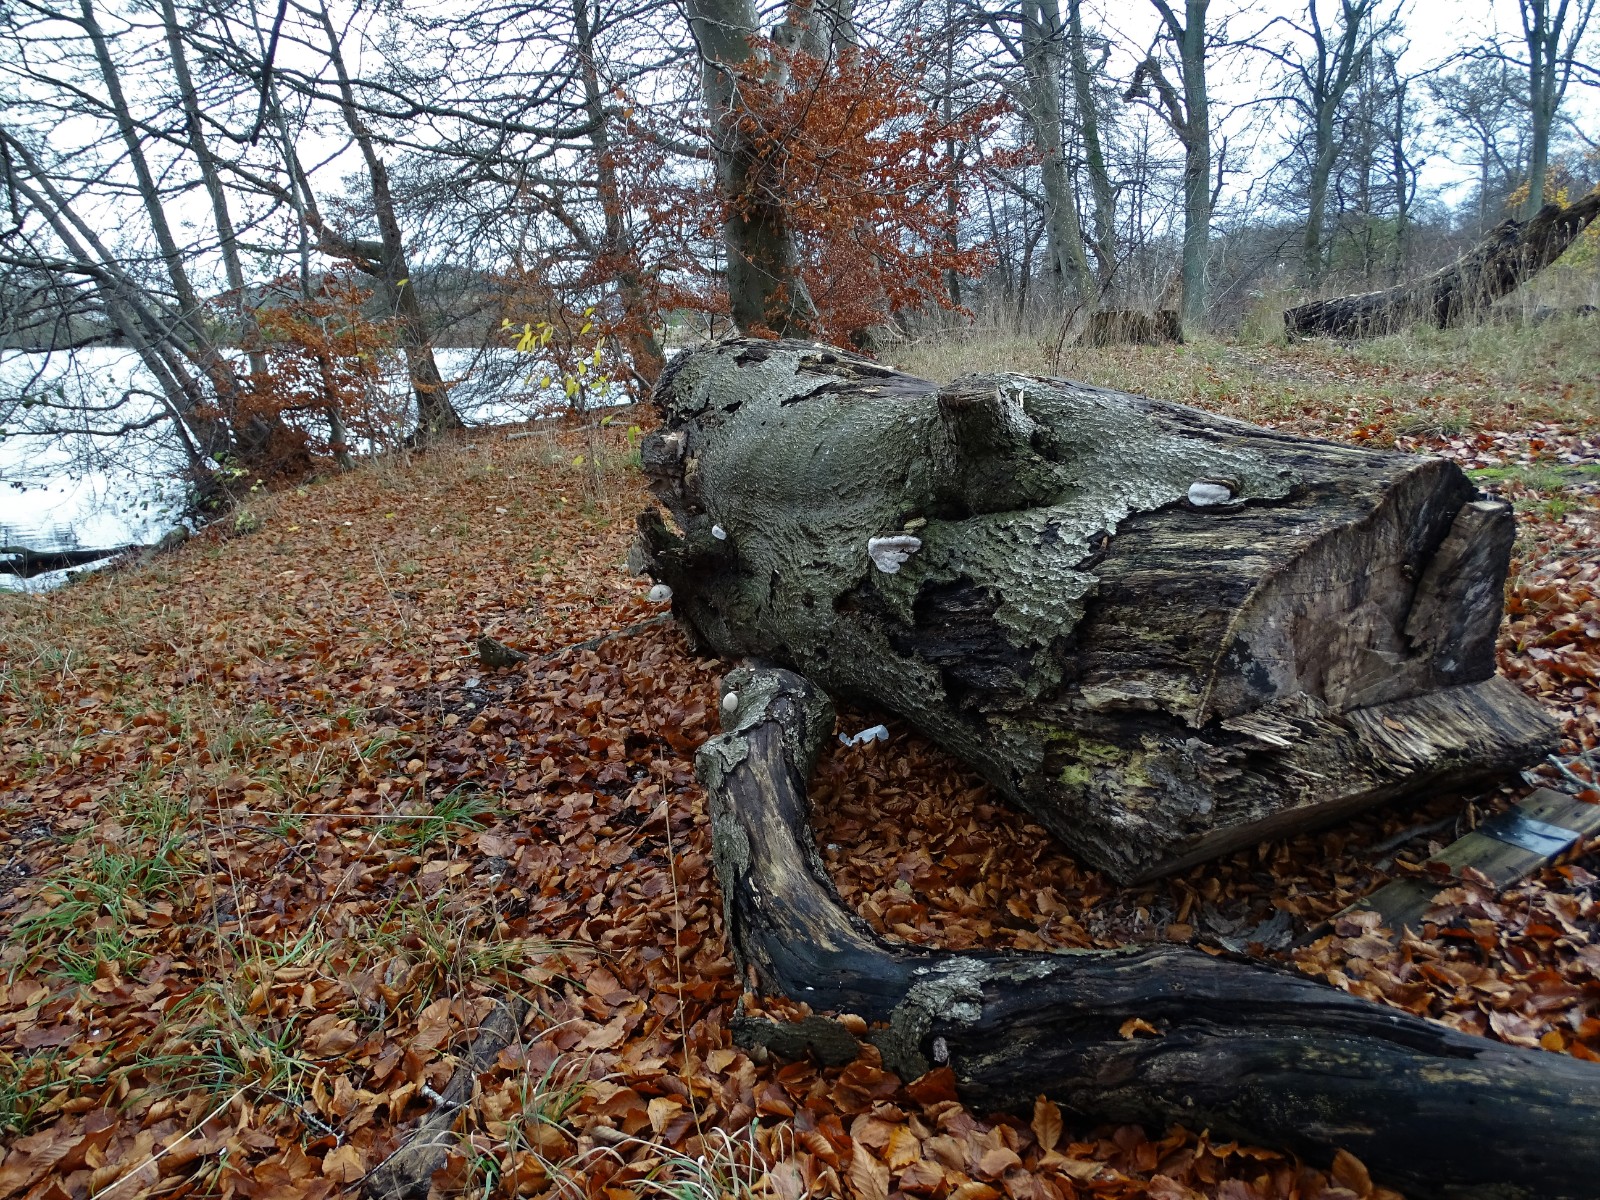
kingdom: Fungi
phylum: Basidiomycota
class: Agaricomycetes
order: Polyporales
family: Ischnodermataceae
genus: Ischnoderma
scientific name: Ischnoderma resinosum
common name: løv-tjæreporesvamp
